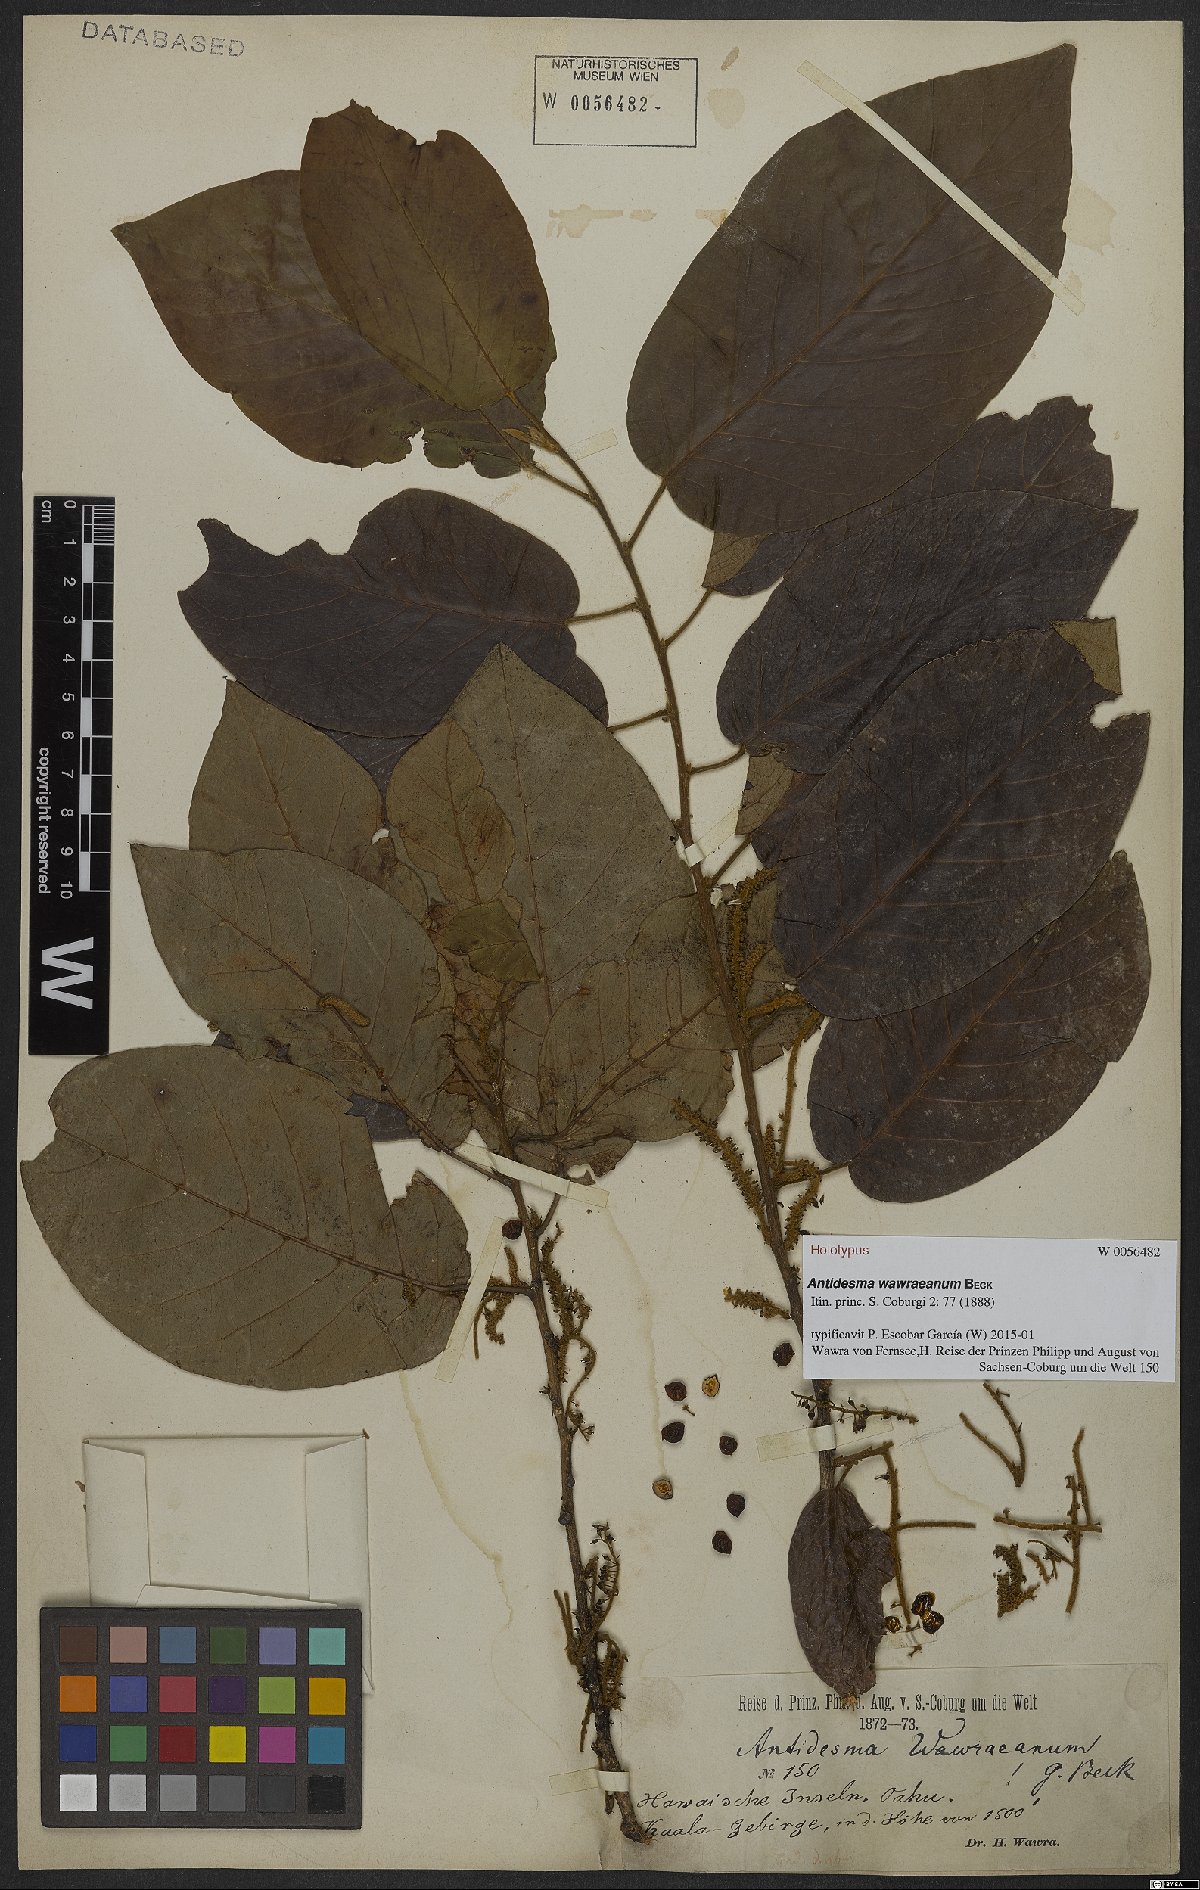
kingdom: Plantae
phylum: Tracheophyta
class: Magnoliopsida
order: Malpighiales
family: Phyllanthaceae
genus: Antidesma
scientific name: Antidesma pulvinatum
